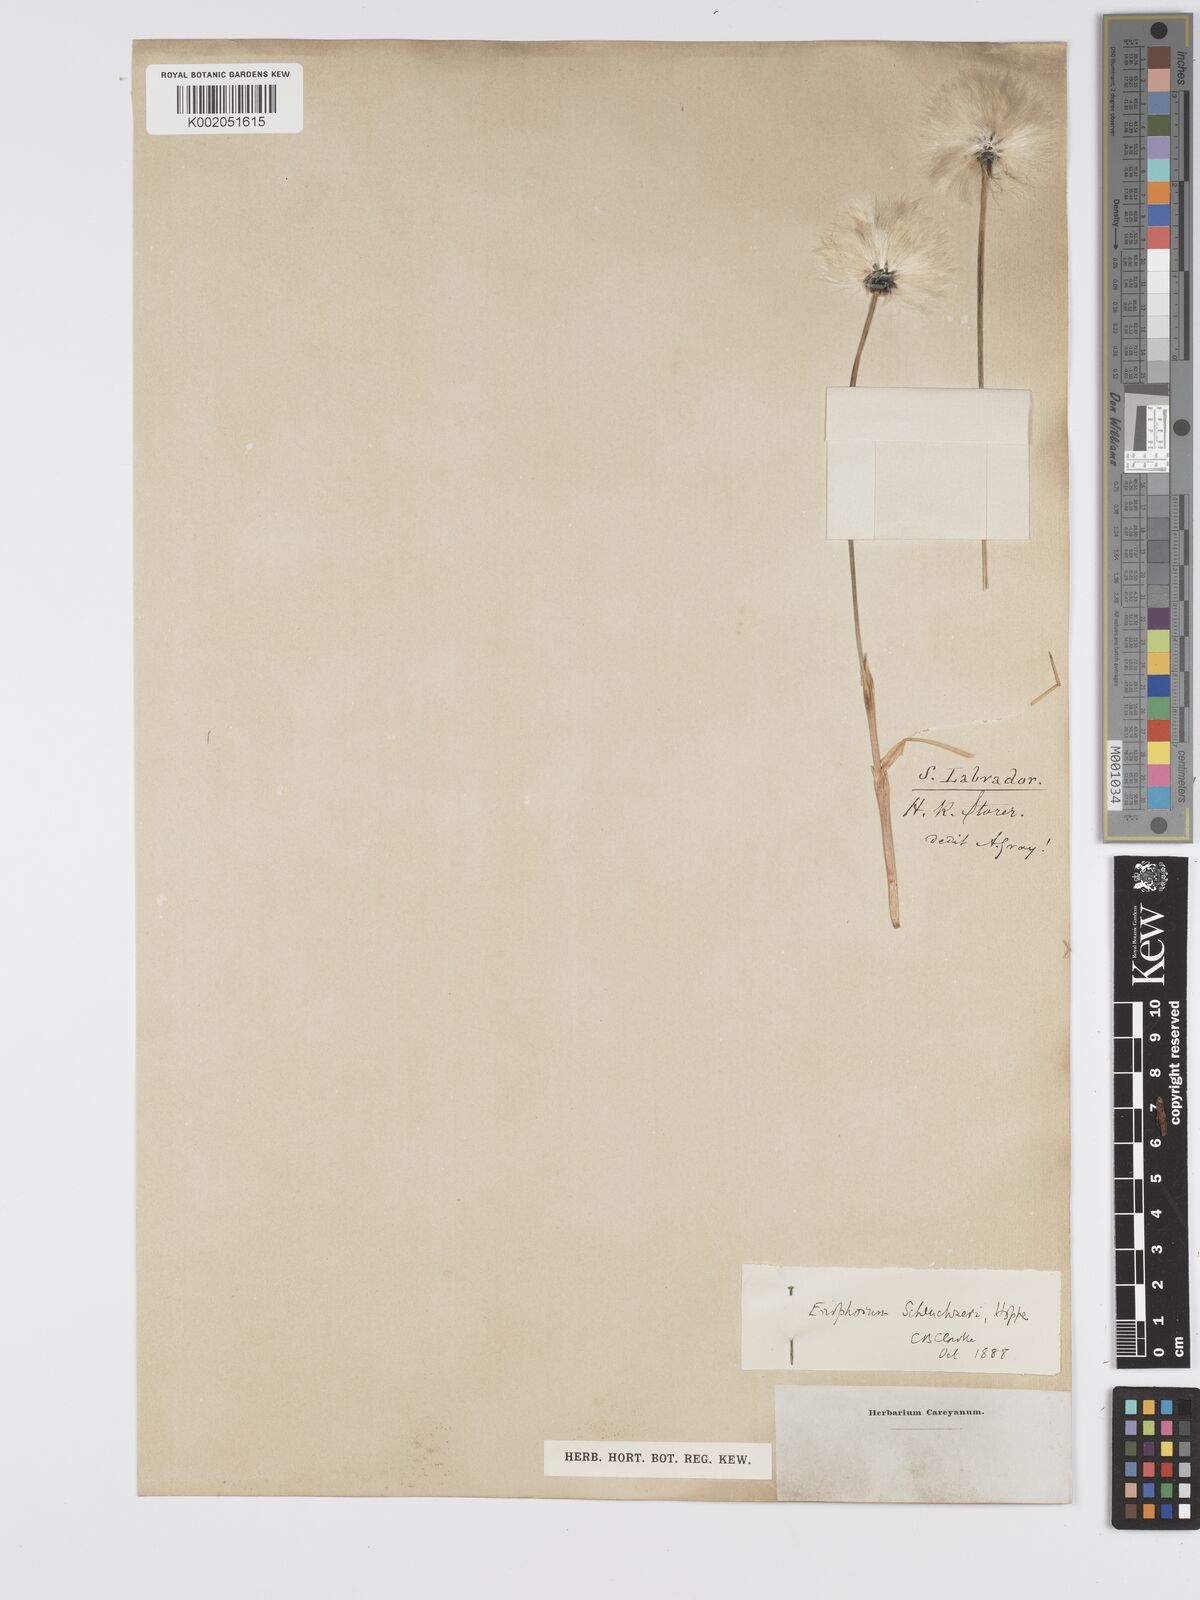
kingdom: Plantae
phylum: Tracheophyta
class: Liliopsida
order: Poales
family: Cyperaceae
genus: Eriophorum
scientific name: Eriophorum scheuchzeri
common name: Scheuchzer's cottongrass
